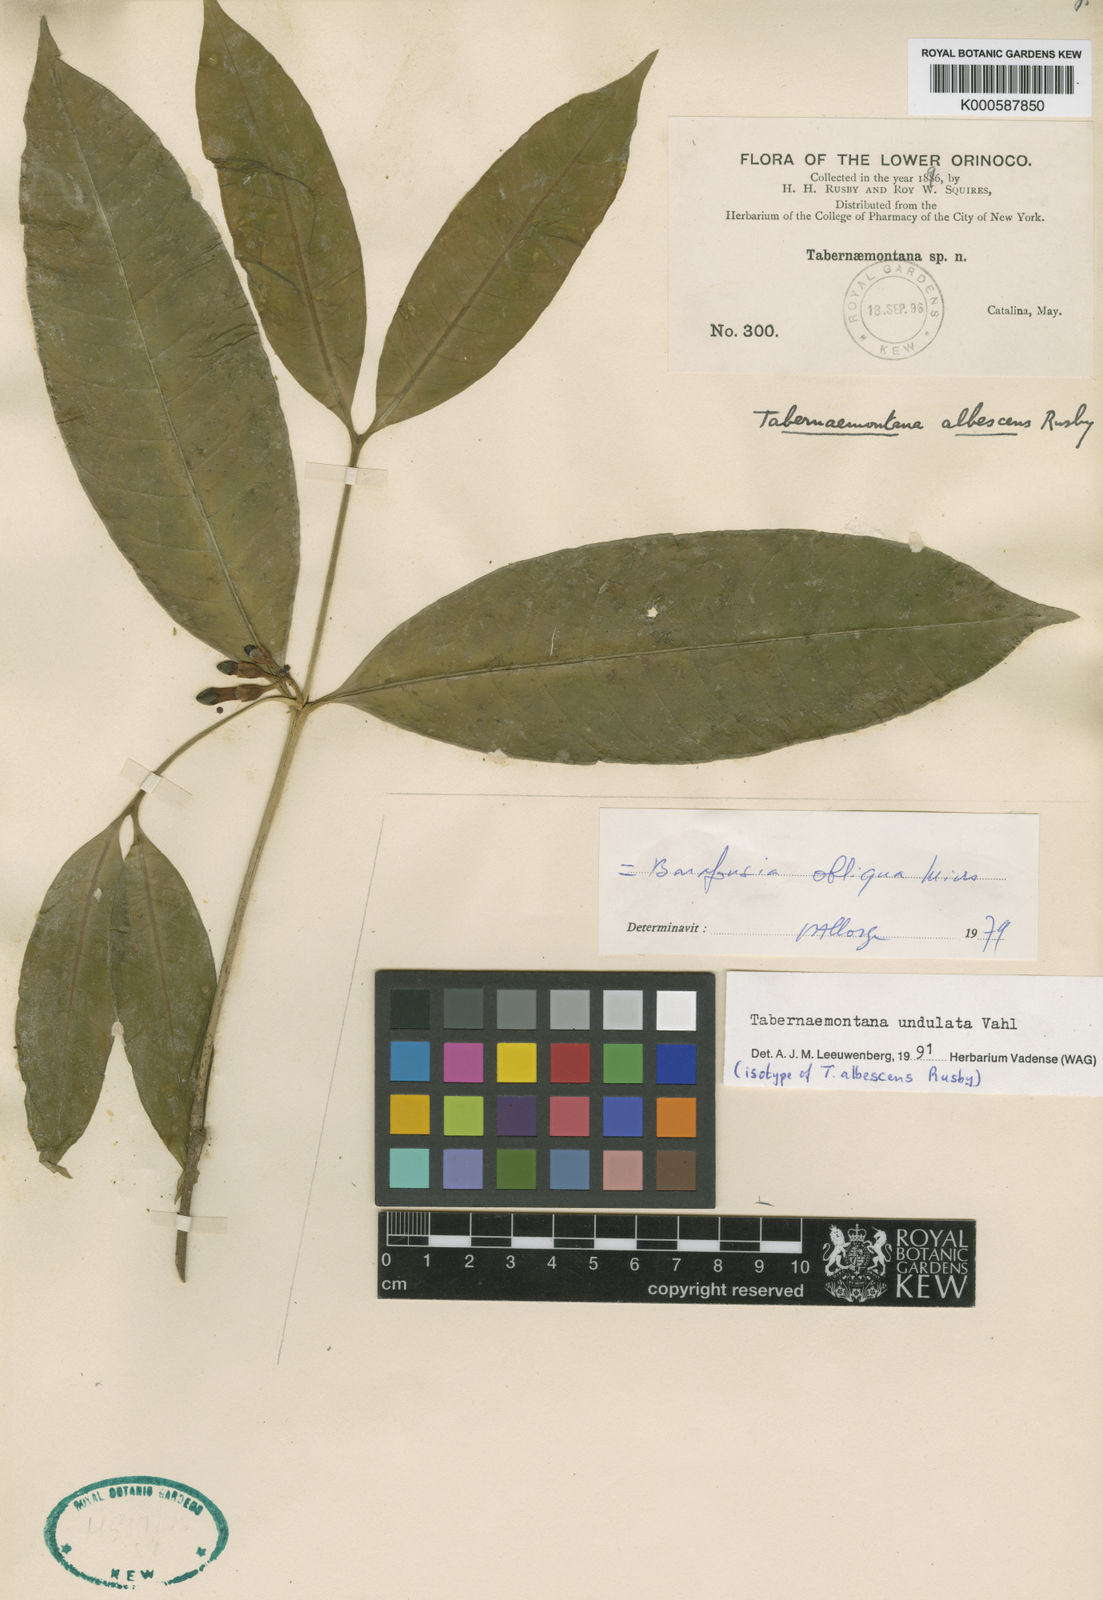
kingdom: Plantae
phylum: Tracheophyta
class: Magnoliopsida
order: Gentianales
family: Apocynaceae
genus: Tabernaemontana
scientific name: Tabernaemontana undulata
